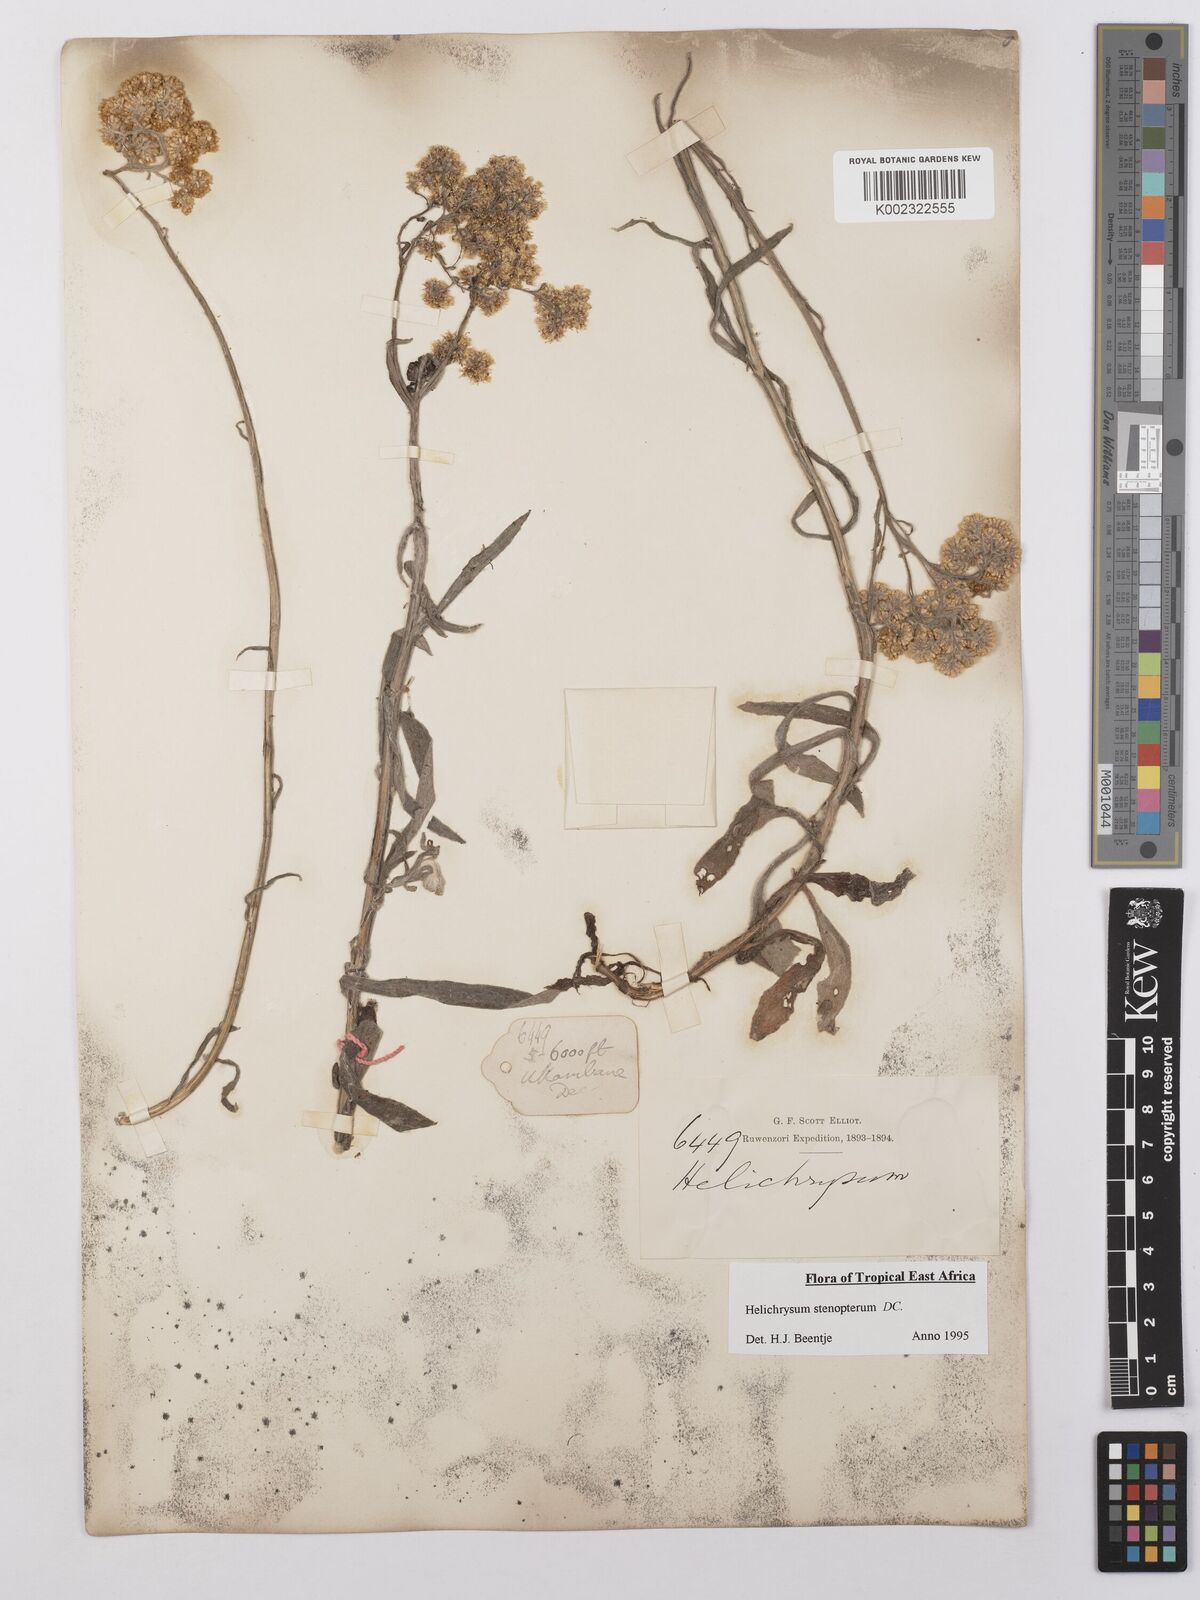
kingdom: Plantae
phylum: Tracheophyta
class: Magnoliopsida
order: Asterales
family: Asteraceae
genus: Helichrysum
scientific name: Helichrysum stenopterum
